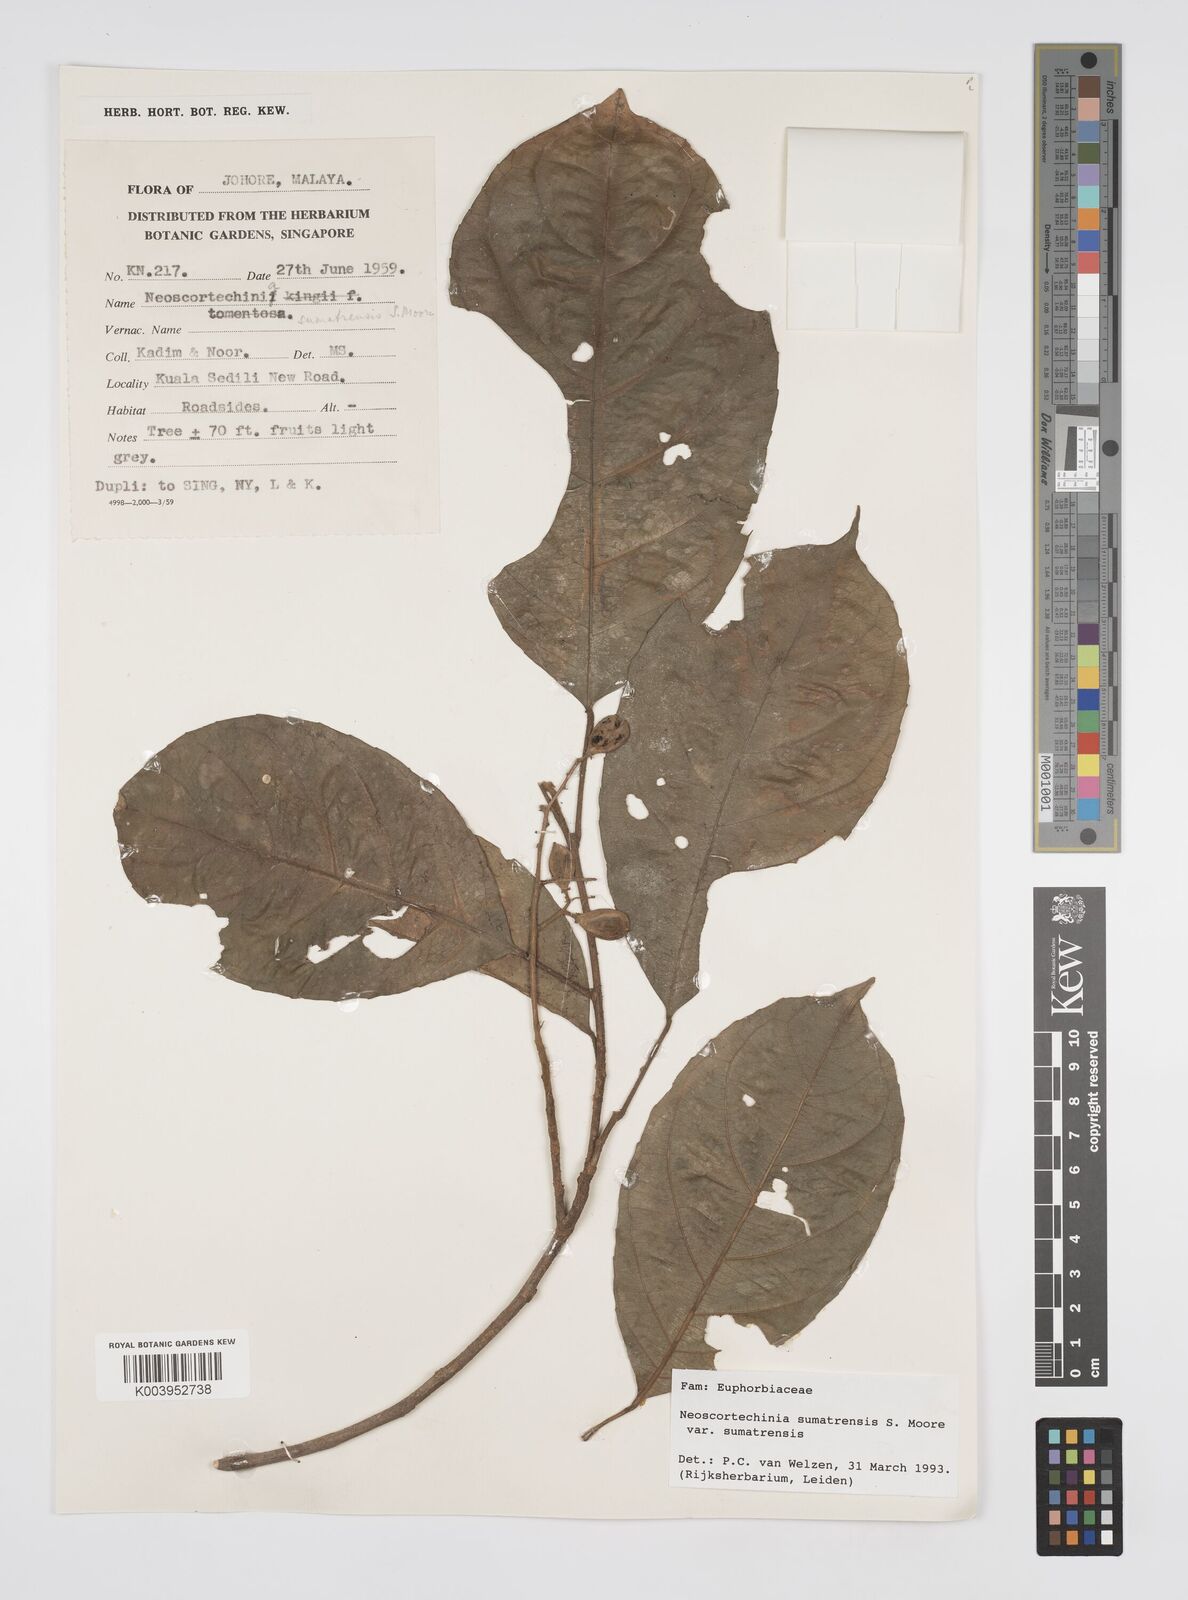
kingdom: Plantae
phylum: Tracheophyta
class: Magnoliopsida
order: Malpighiales
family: Euphorbiaceae
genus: Neoscortechinia
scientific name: Neoscortechinia sumatrensis
